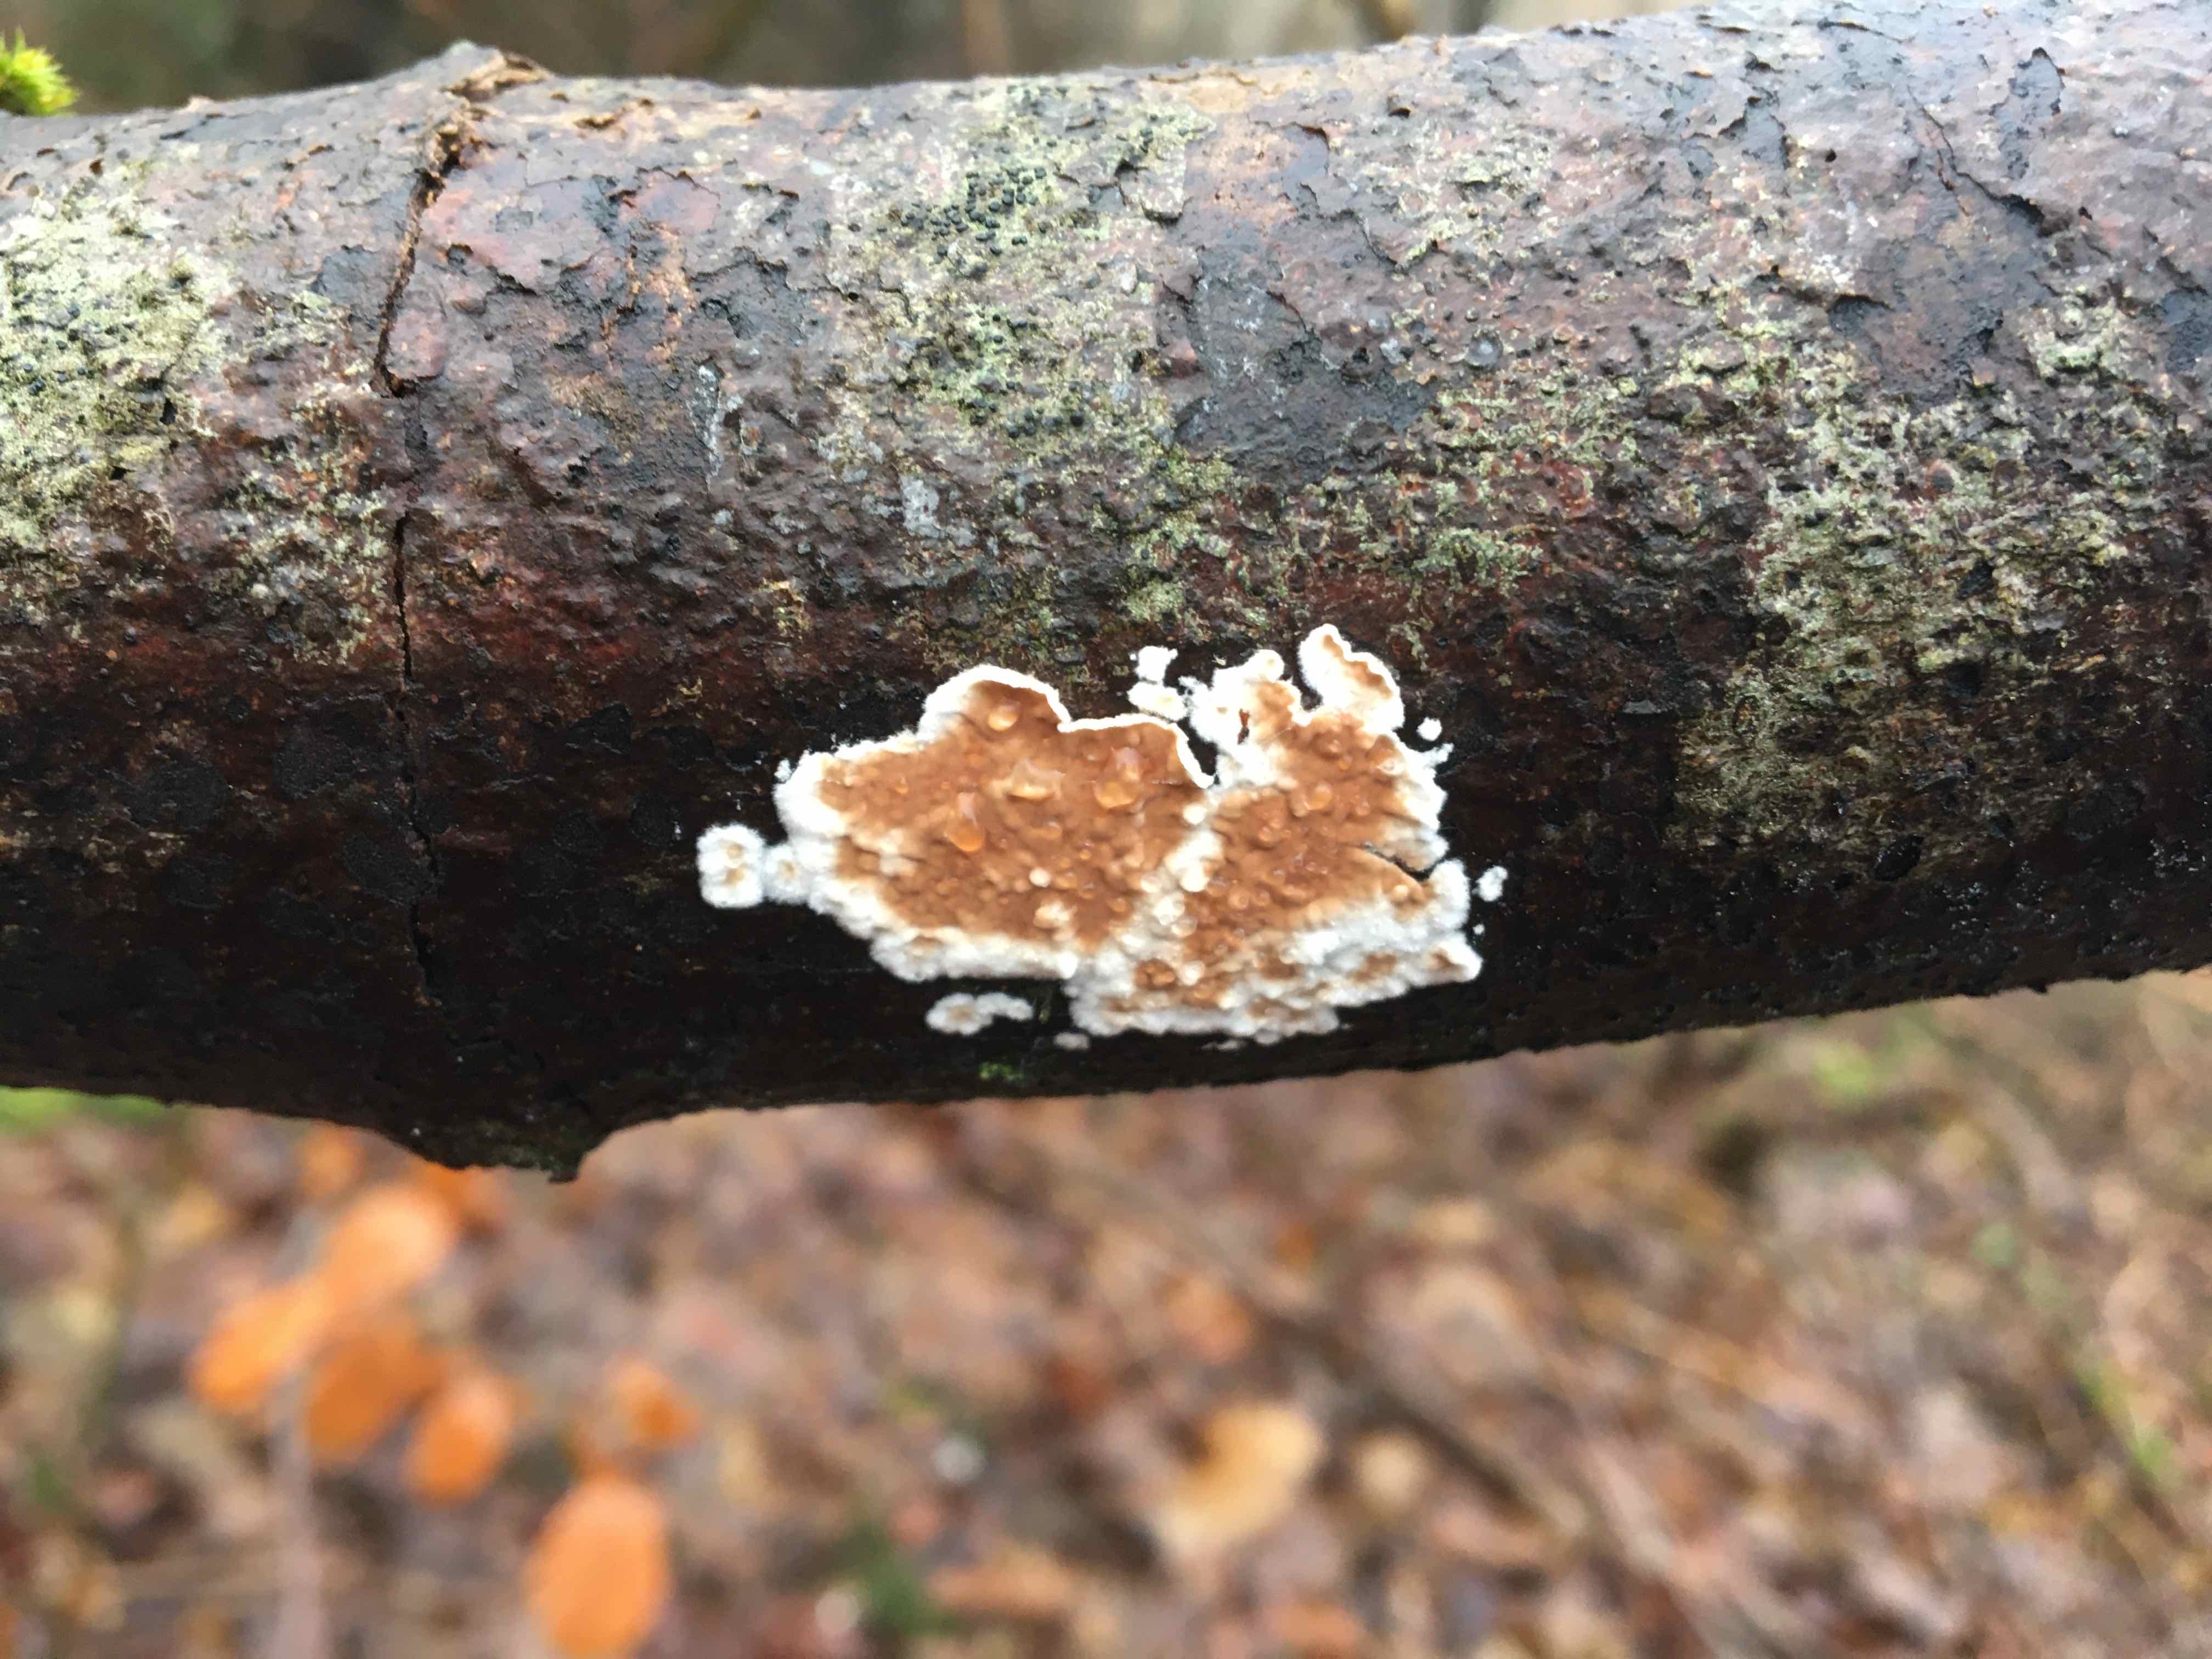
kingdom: Fungi
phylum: Basidiomycota
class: Agaricomycetes
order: Agaricales
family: Physalacriaceae
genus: Cylindrobasidium
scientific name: Cylindrobasidium evolvens
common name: sprækkehinde
